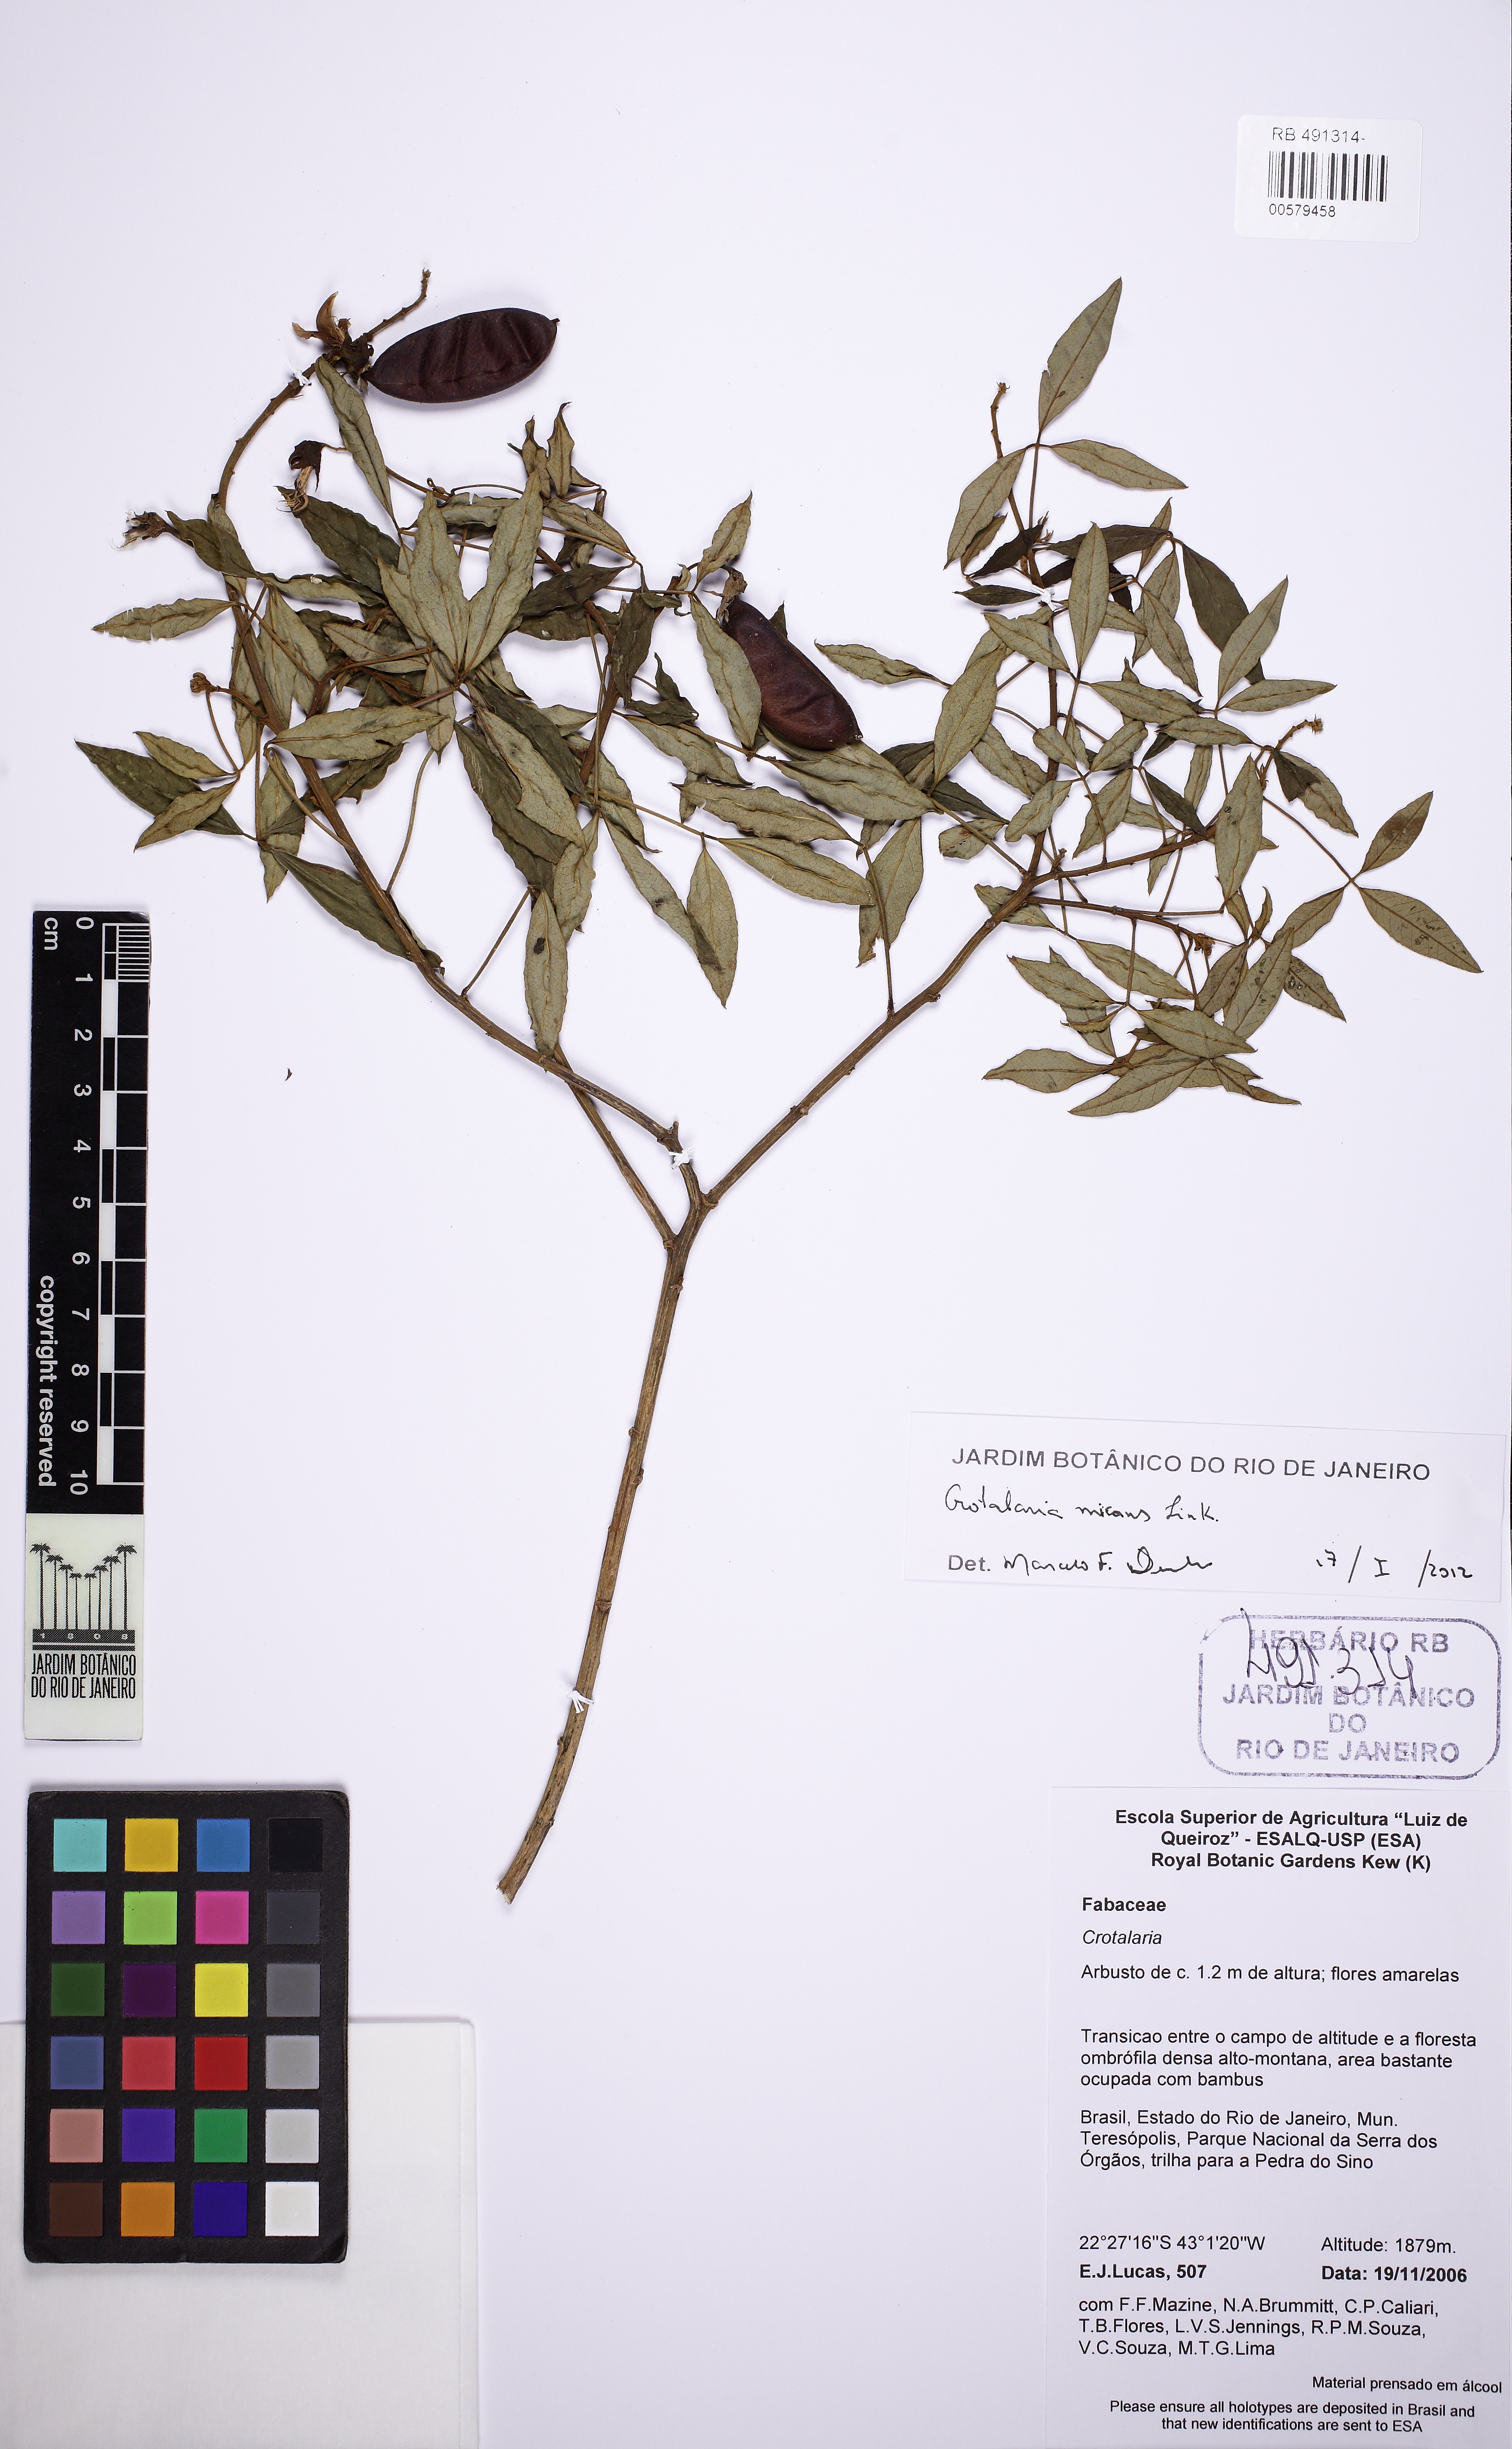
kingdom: Plantae
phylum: Tracheophyta
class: Magnoliopsida
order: Fabales
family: Fabaceae
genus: Crotalaria
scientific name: Crotalaria micans
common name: Caracas rattlebox
